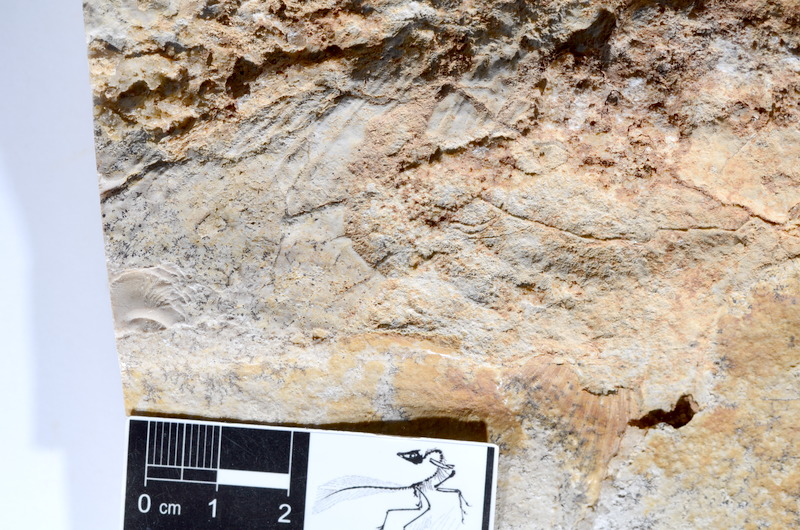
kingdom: Animalia
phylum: Chordata
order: Amiiformes
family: Caturidae
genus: Caturus
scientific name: Caturus
